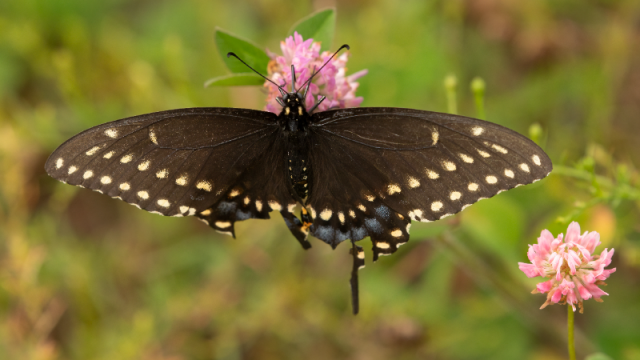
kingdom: Animalia
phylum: Arthropoda
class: Insecta
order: Lepidoptera
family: Papilionidae
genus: Papilio
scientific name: Papilio polyxenes
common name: Black Swallowtail
